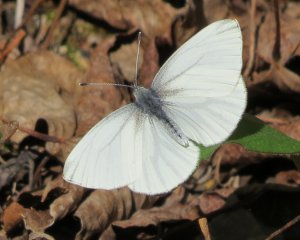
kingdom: Animalia
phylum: Arthropoda
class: Insecta
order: Lepidoptera
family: Pieridae
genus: Pieris
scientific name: Pieris oleracea
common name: Mustard White
